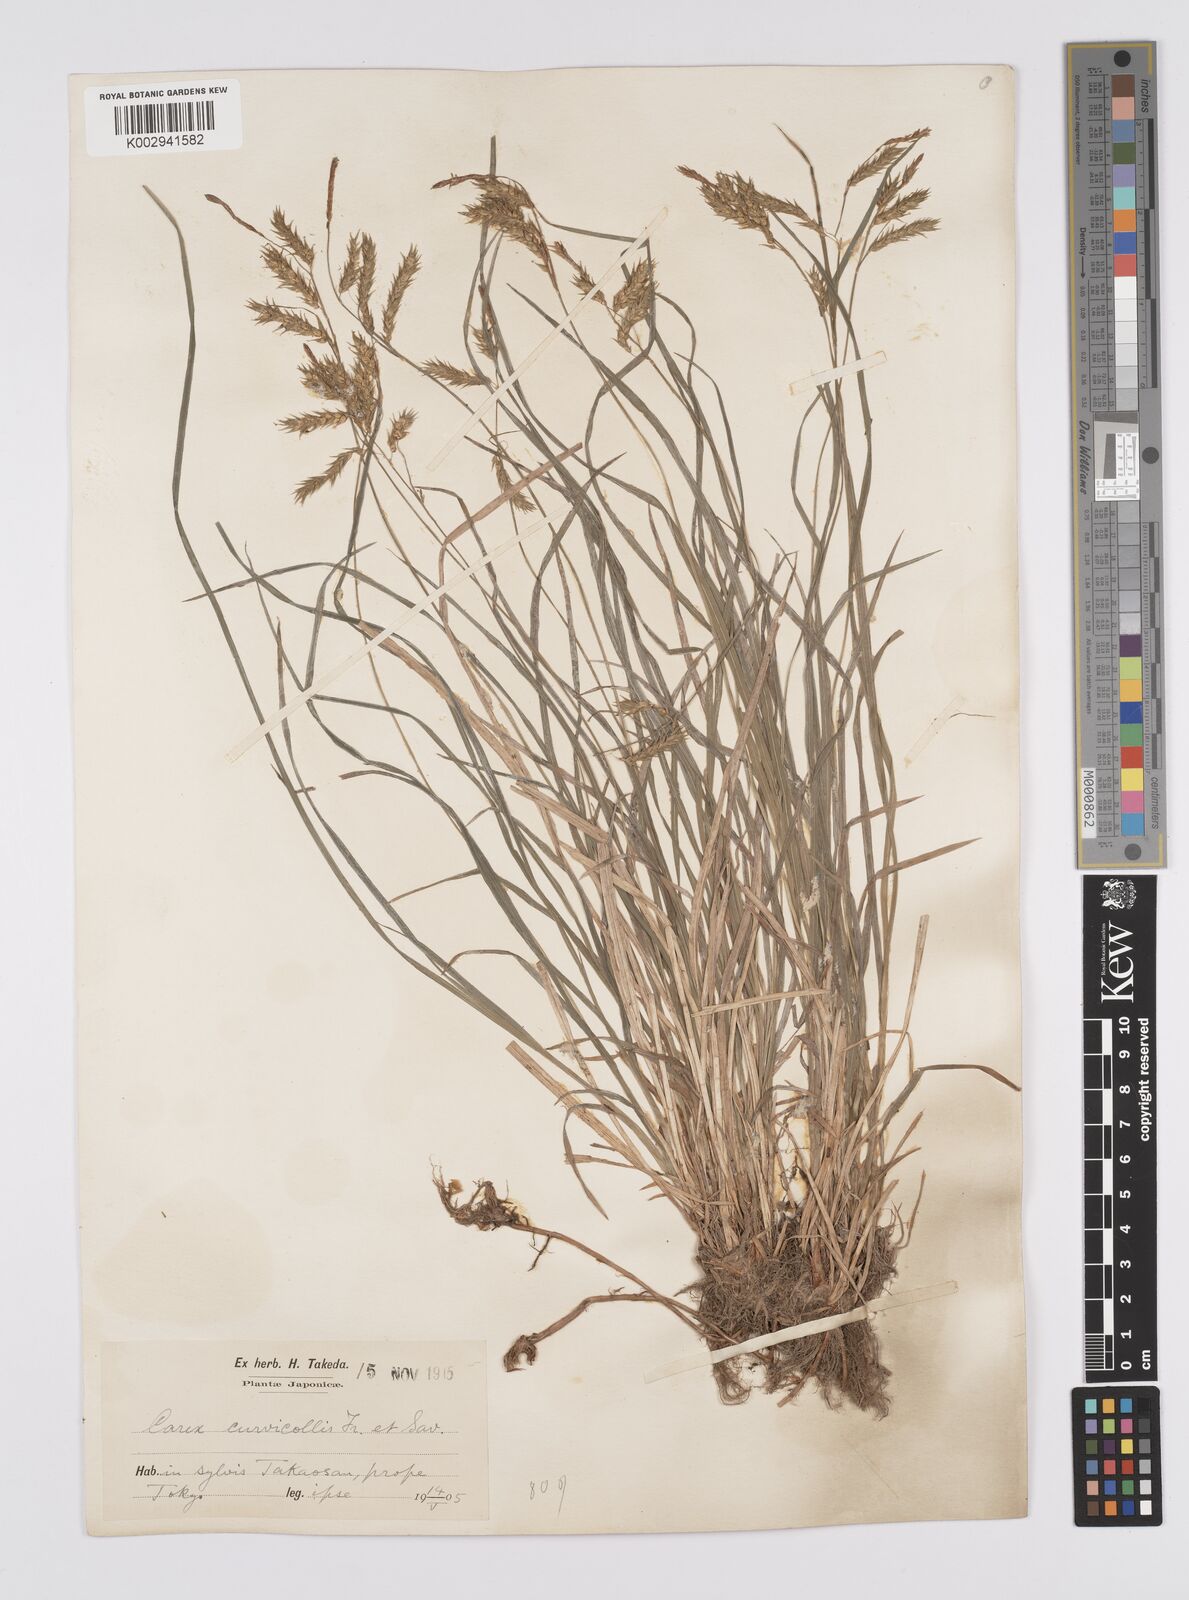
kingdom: Plantae
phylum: Tracheophyta
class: Liliopsida
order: Poales
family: Cyperaceae
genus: Carex
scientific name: Carex curvicollis
